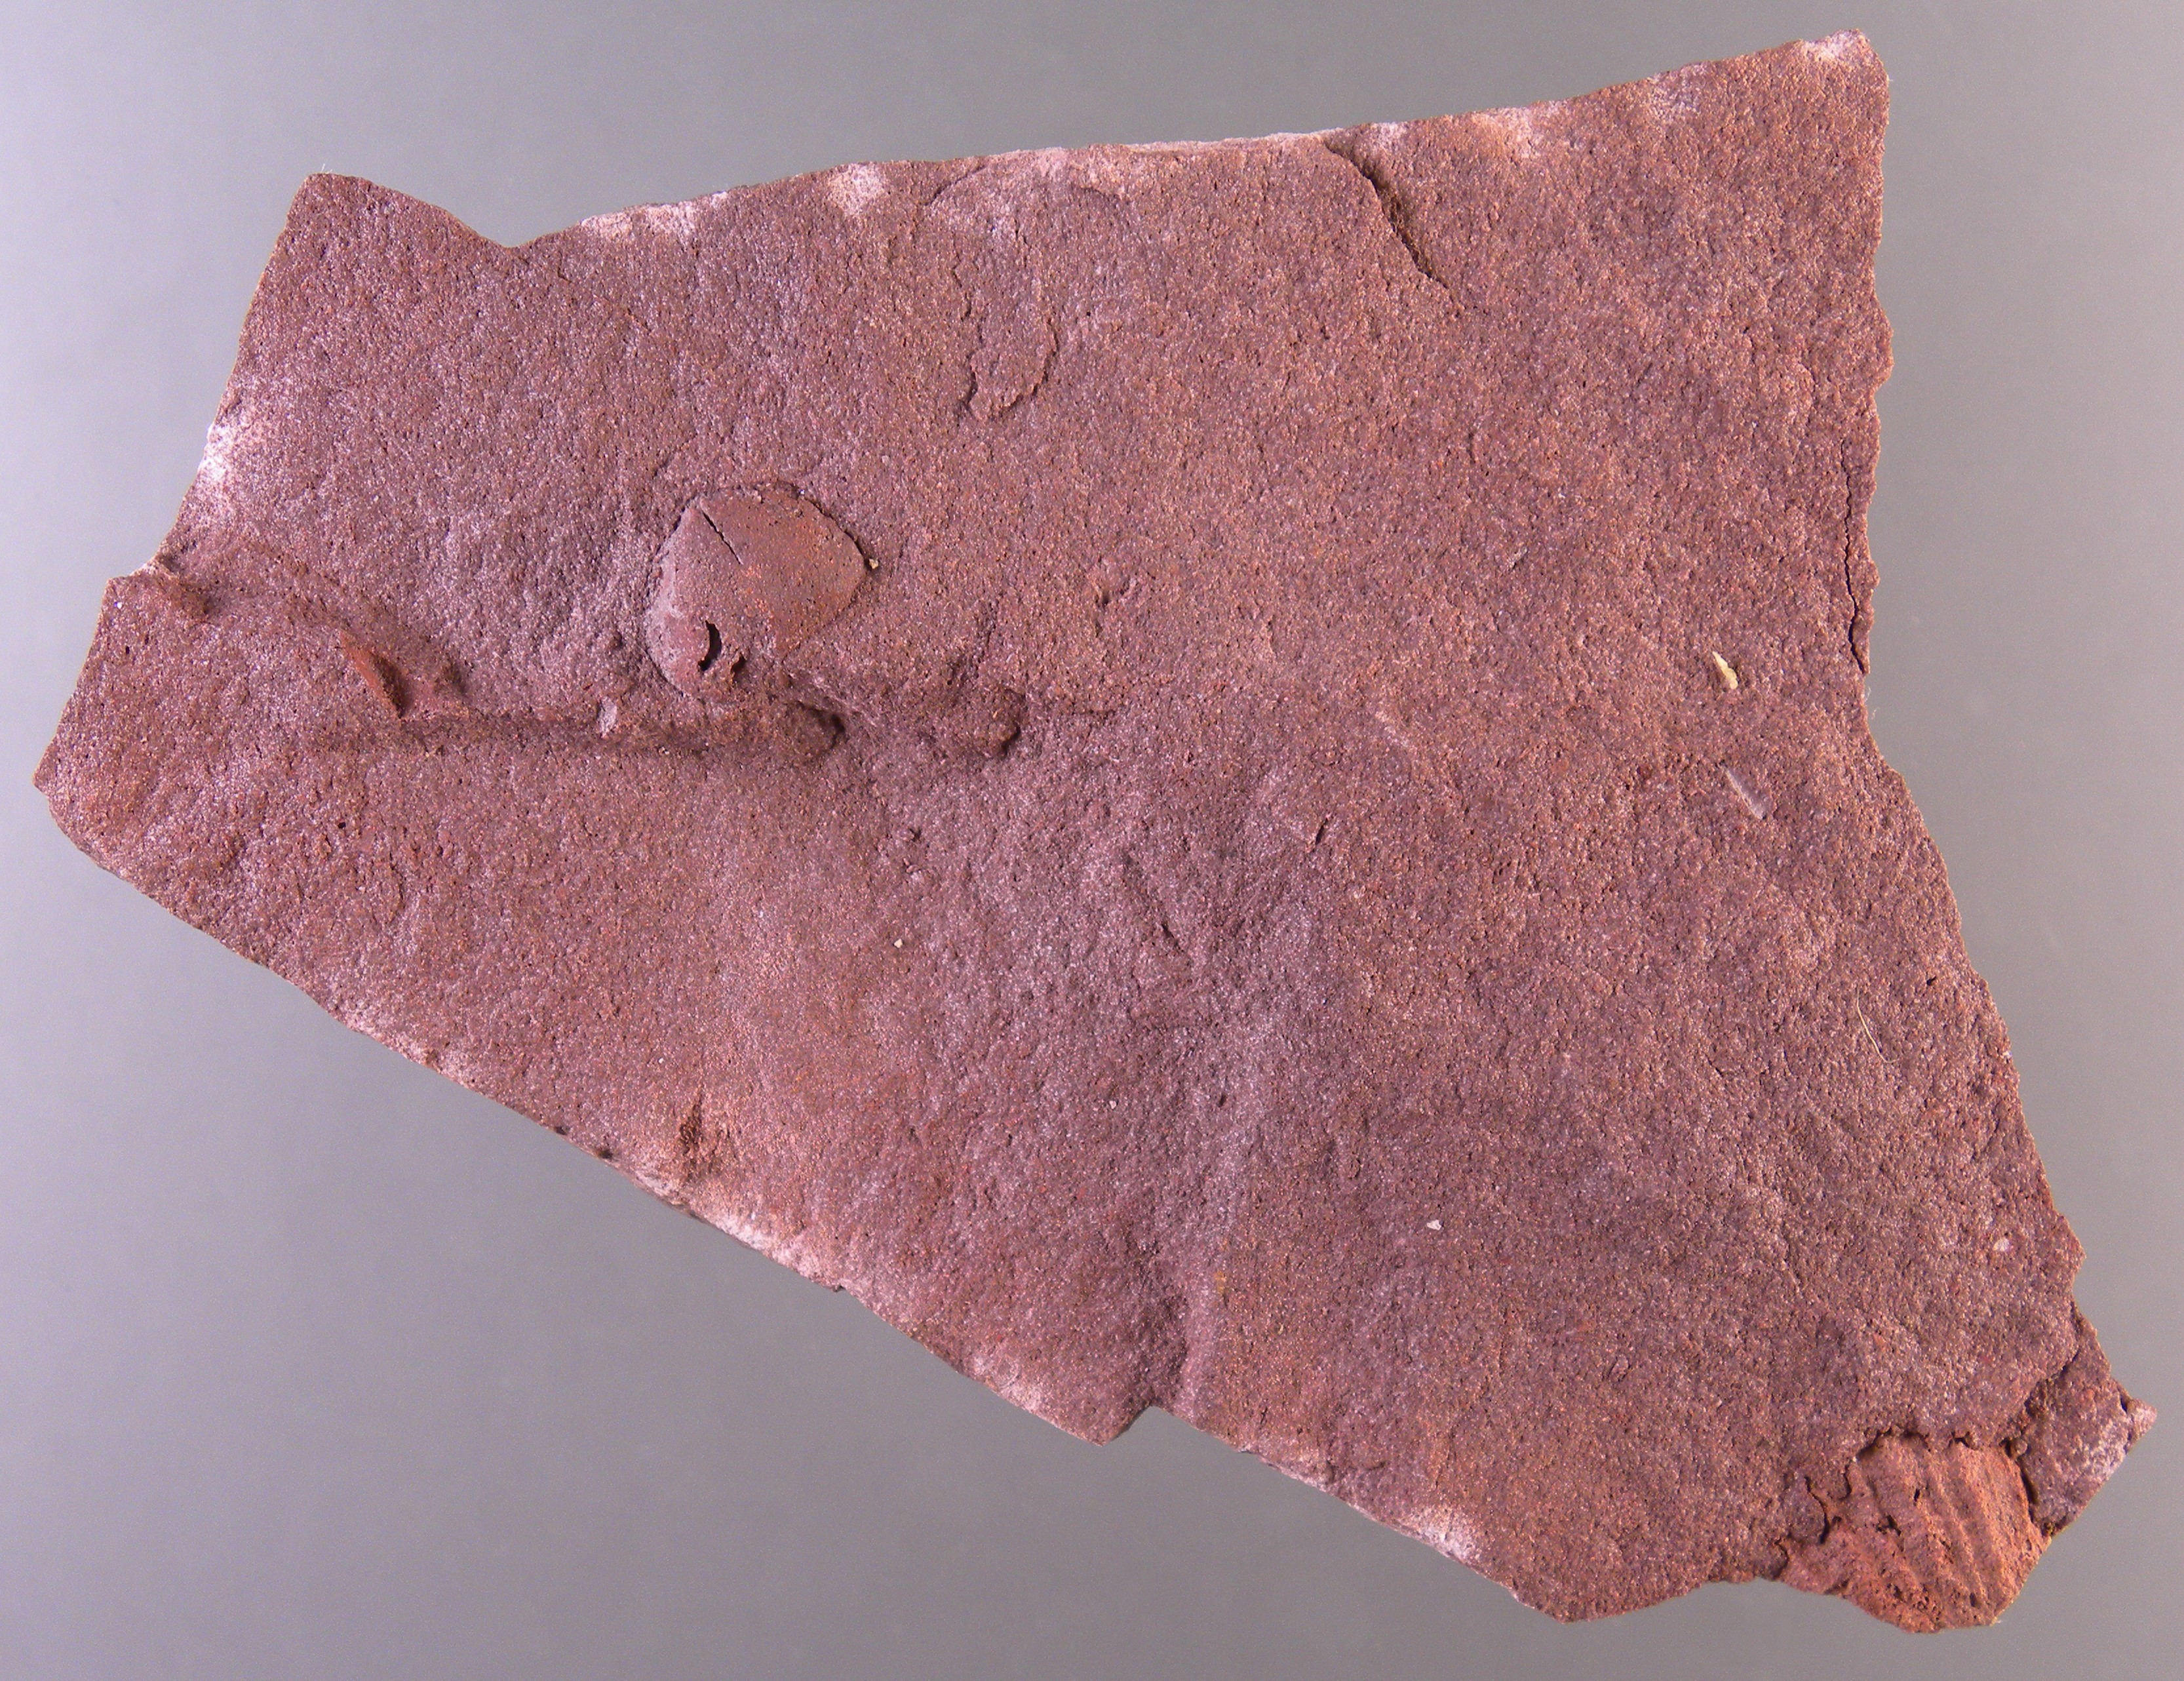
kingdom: Animalia
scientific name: Animalia
